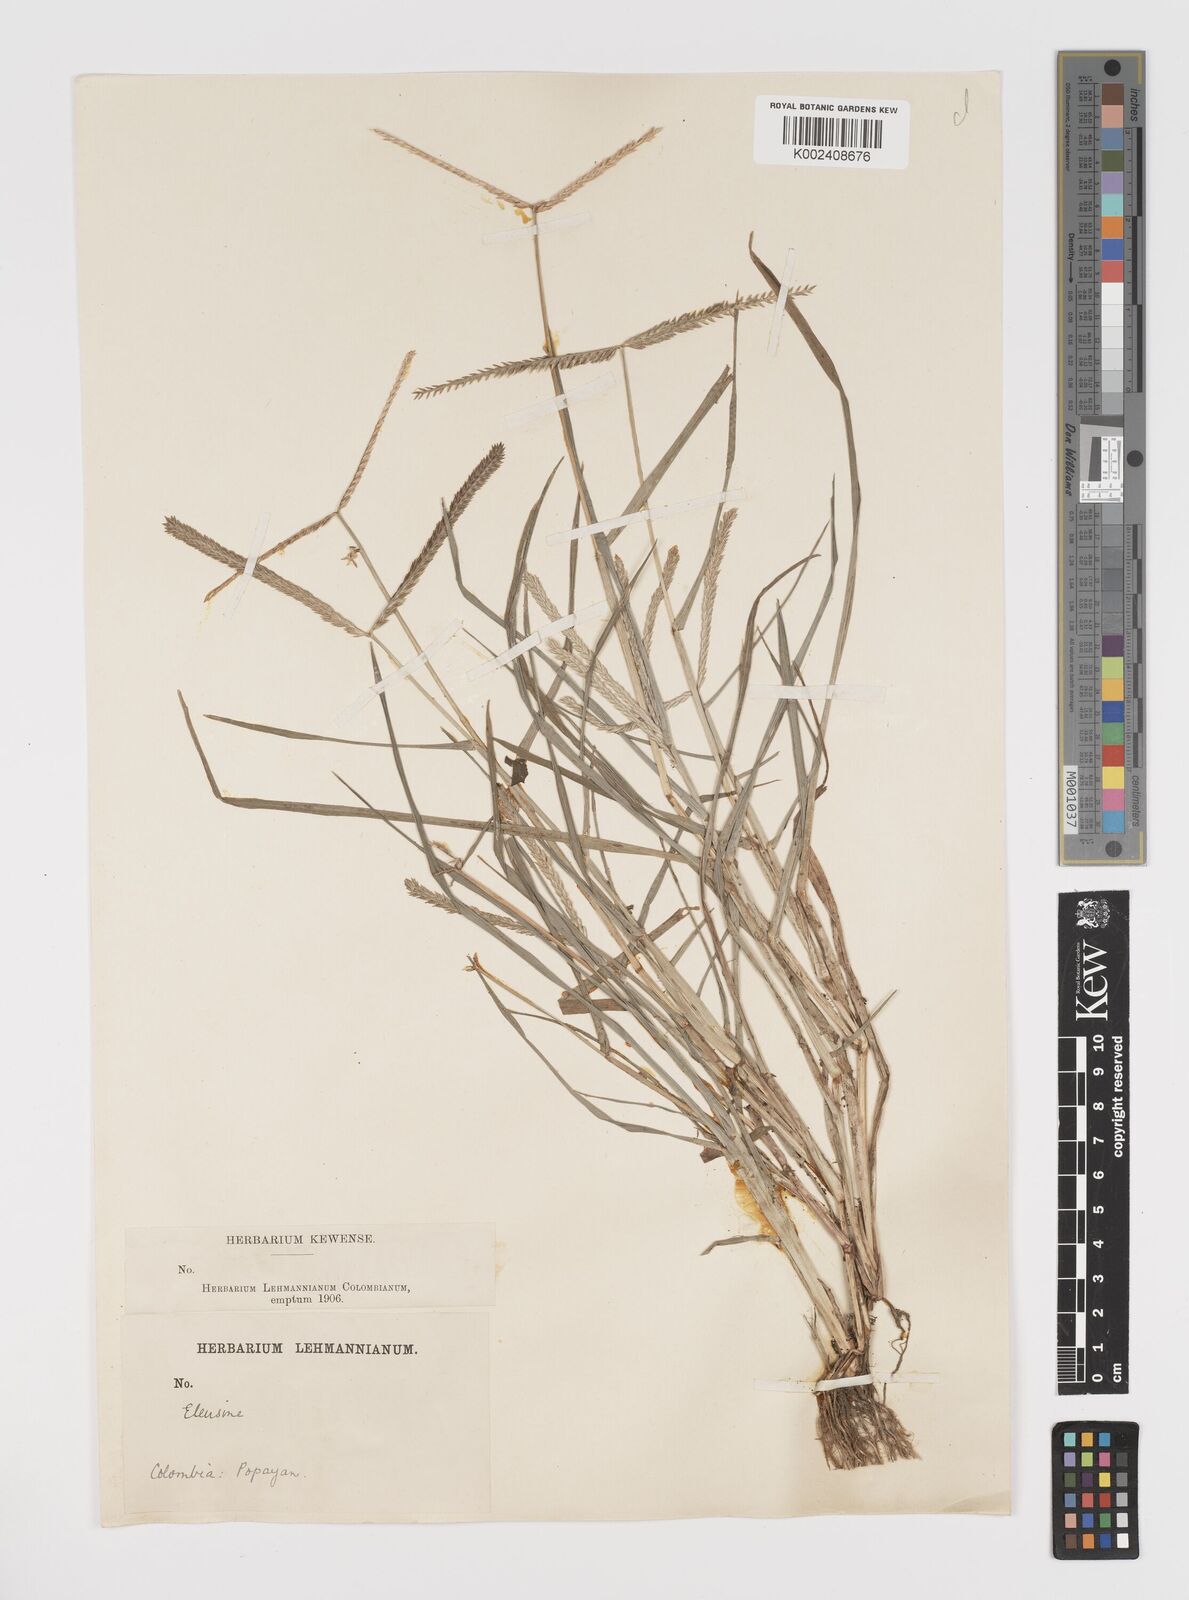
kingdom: Plantae
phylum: Tracheophyta
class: Liliopsida
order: Poales
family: Poaceae
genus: Eleusine
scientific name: Eleusine indica
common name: Yard-grass
